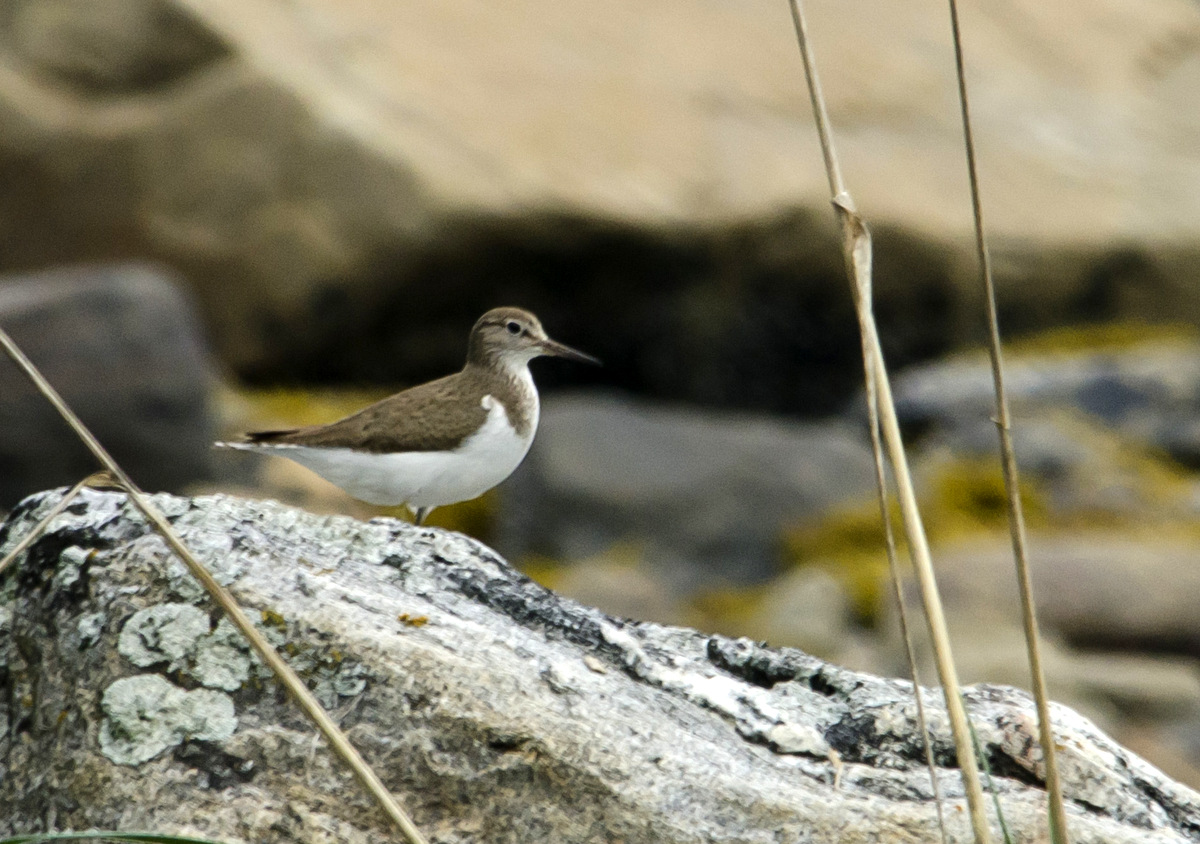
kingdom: Animalia
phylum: Chordata
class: Aves
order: Charadriiformes
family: Scolopacidae
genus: Actitis
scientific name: Actitis hypoleucos
